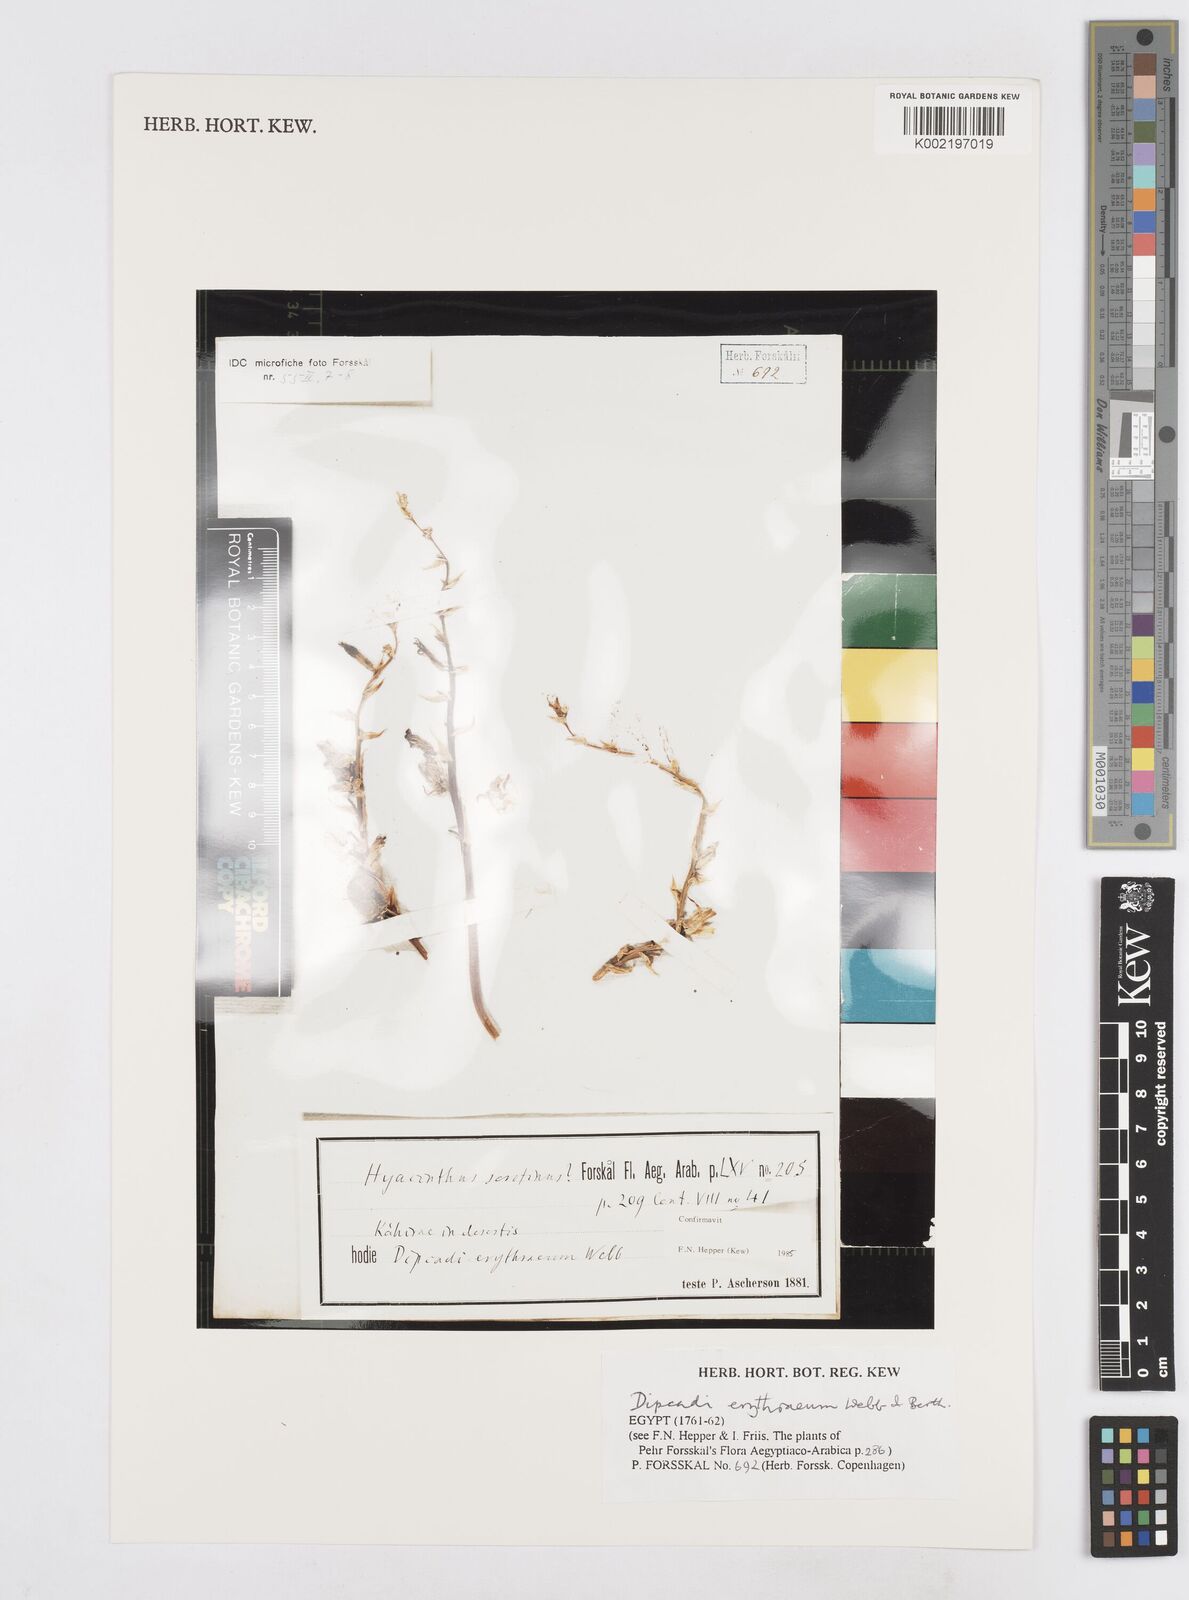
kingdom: Plantae
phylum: Tracheophyta
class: Liliopsida
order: Asparagales
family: Asparagaceae
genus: Dipcadi
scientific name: Dipcadi erythraeum
